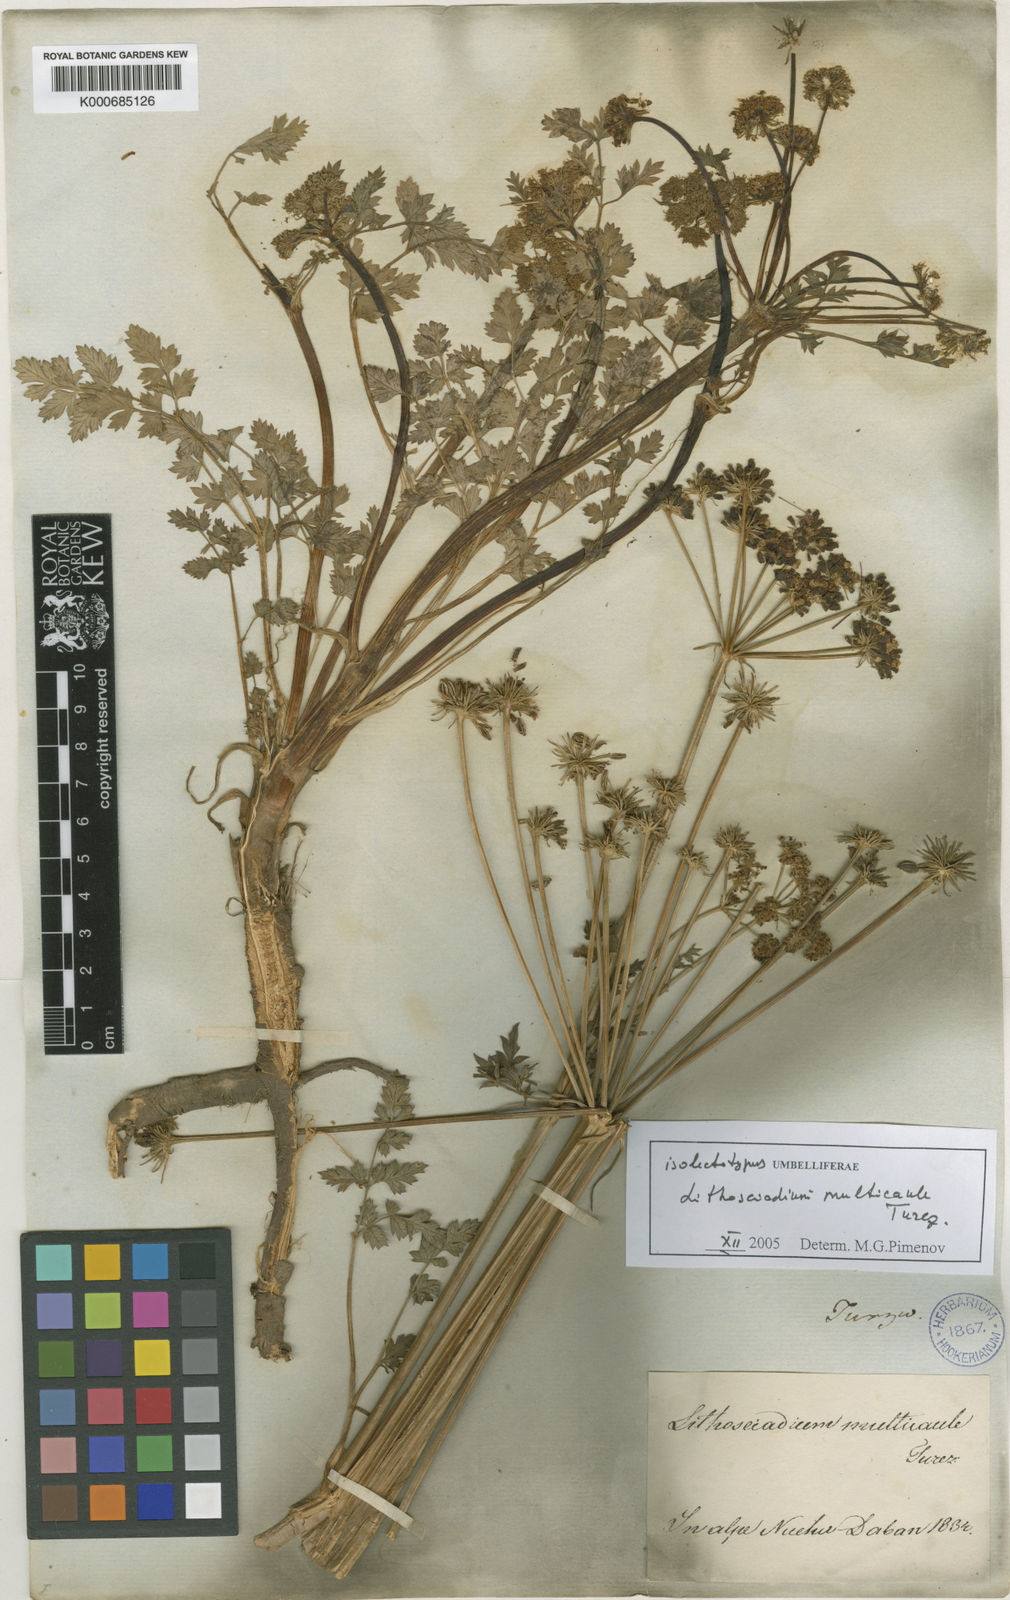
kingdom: Plantae
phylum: Tracheophyta
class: Magnoliopsida
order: Apiales
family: Apiaceae
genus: Lithosciadium
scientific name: Lithosciadium multicaule
